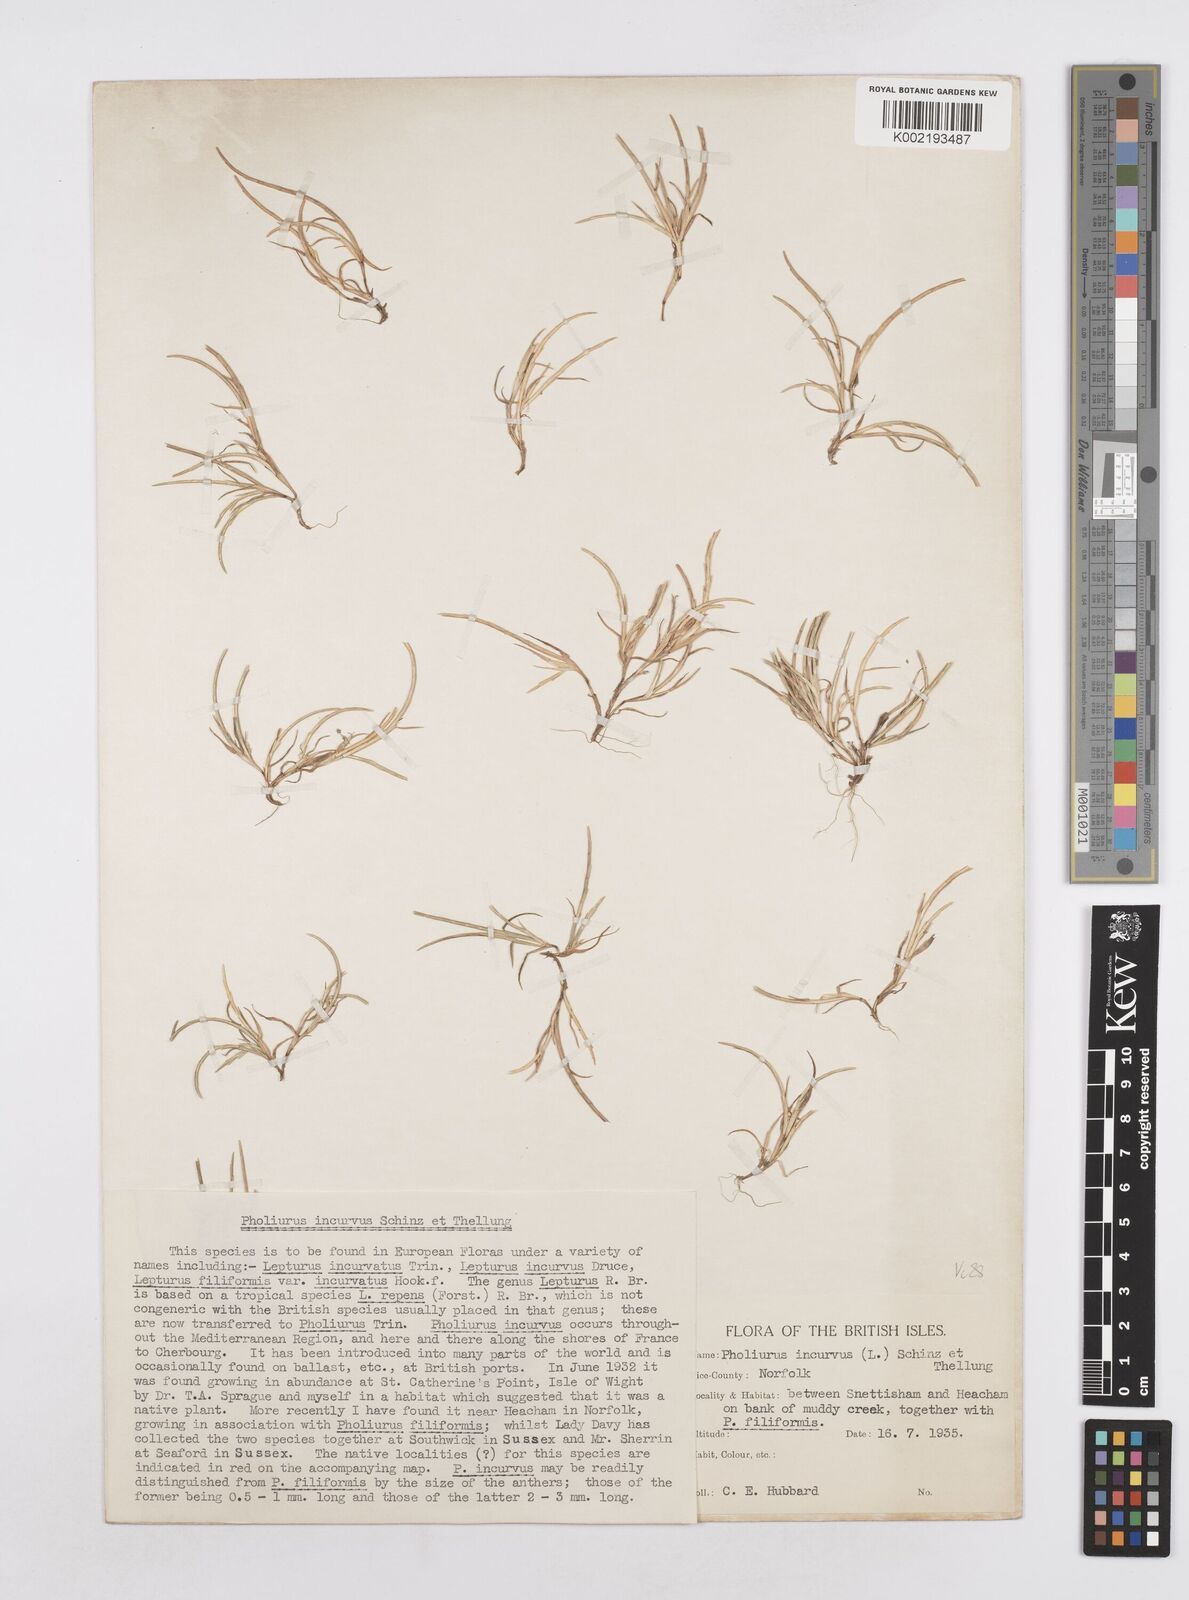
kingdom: Plantae
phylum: Tracheophyta
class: Liliopsida
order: Poales
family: Poaceae
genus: Parapholis
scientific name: Parapholis incurva
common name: Curved sicklegrass
